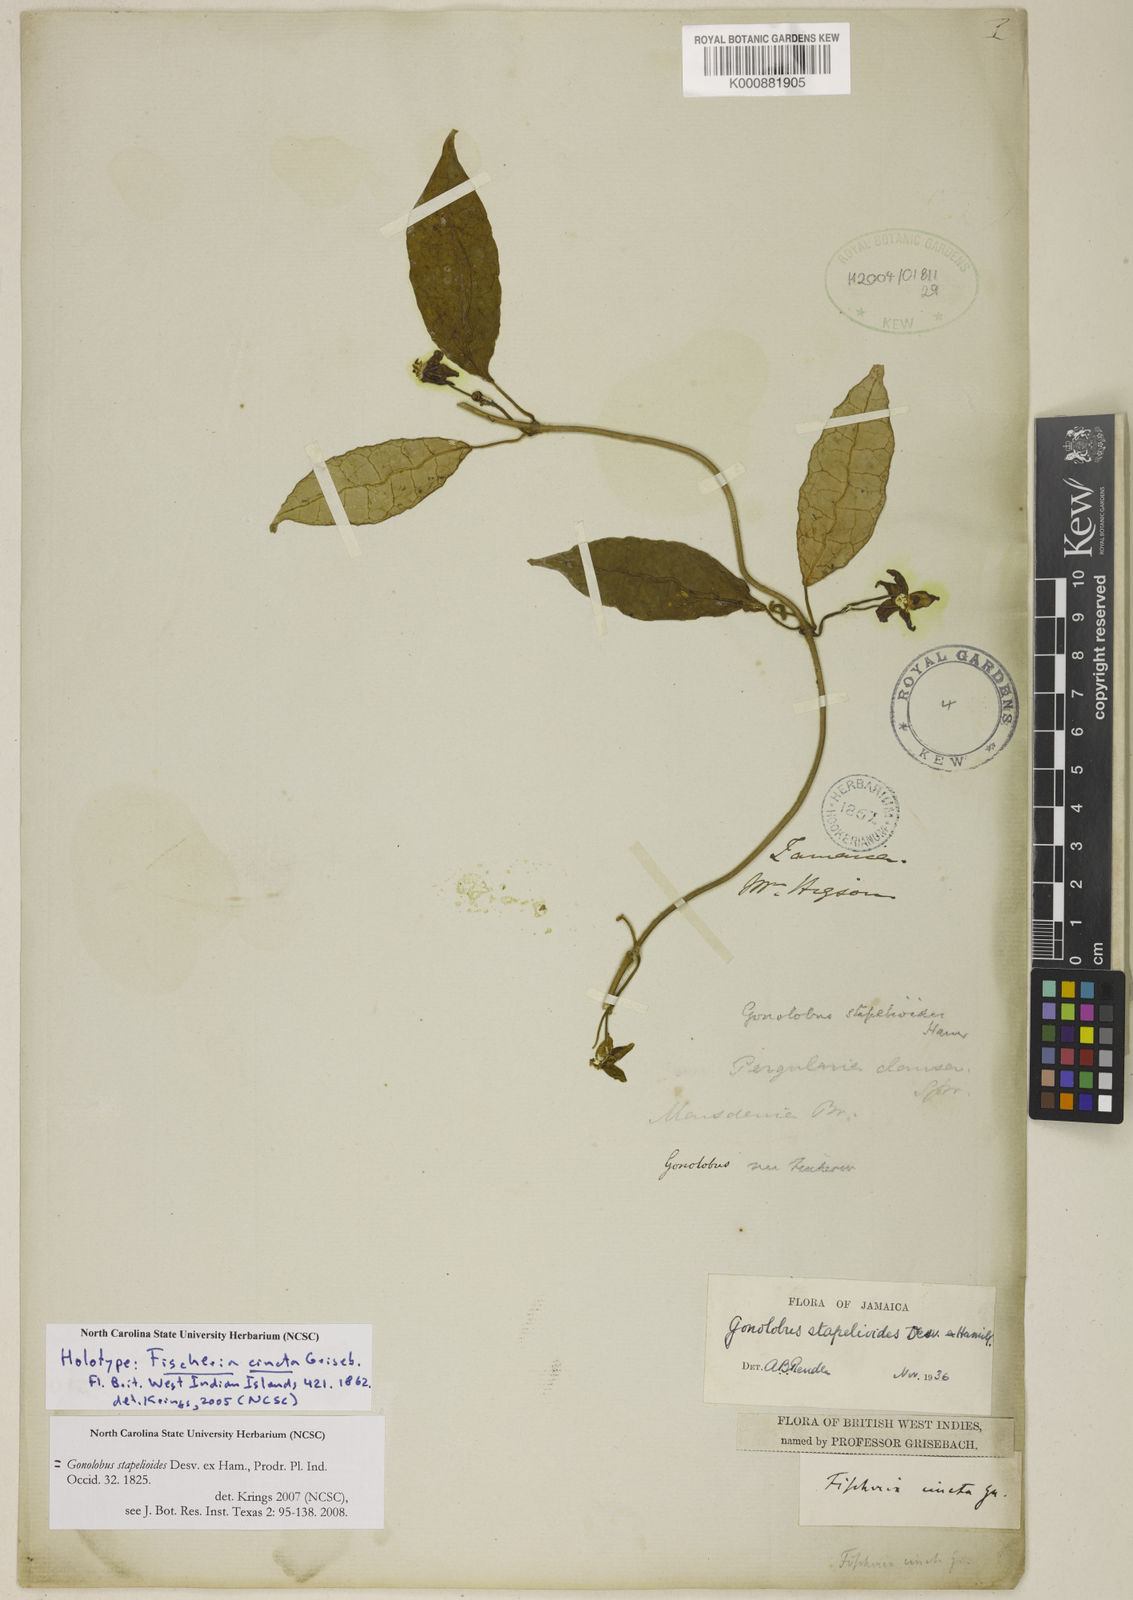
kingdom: Plantae
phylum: Tracheophyta
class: Magnoliopsida
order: Gentianales
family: Apocynaceae
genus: Gonolobus
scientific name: Gonolobus stapelioides
